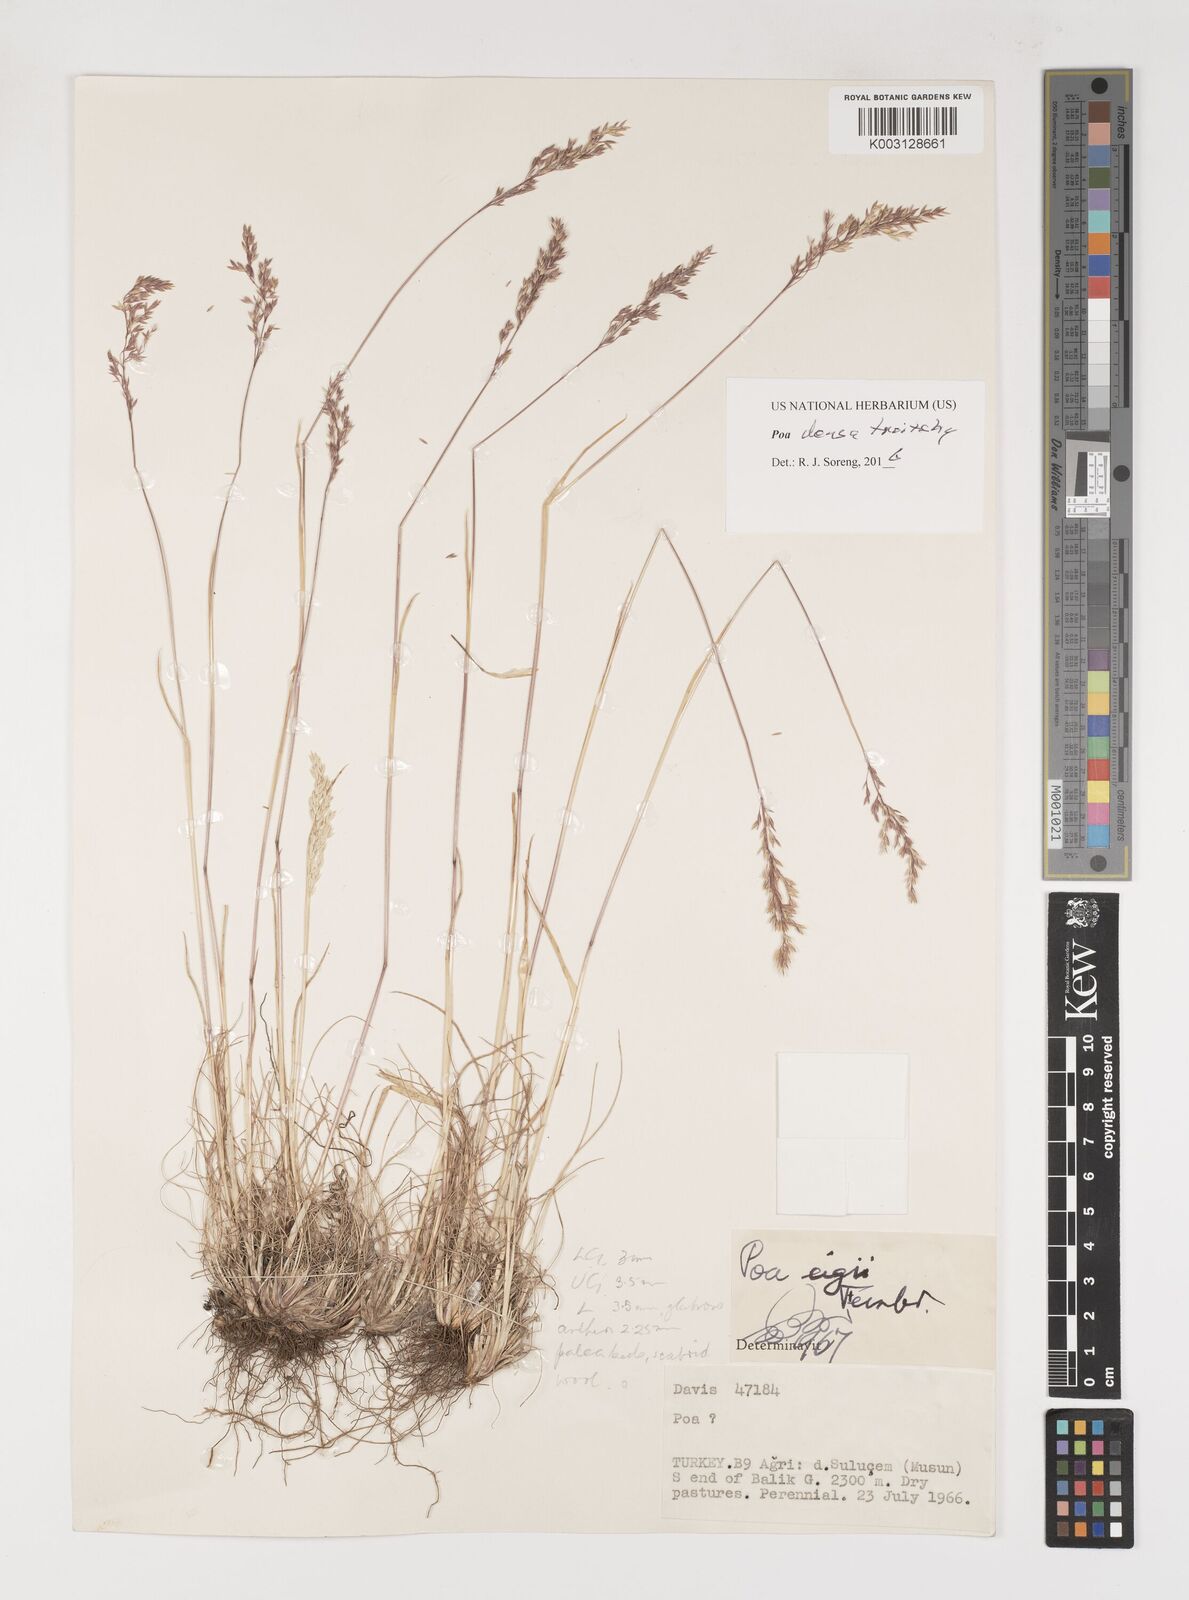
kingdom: Plantae
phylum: Tracheophyta
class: Liliopsida
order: Poales
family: Poaceae
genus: Poa
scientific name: Poa densa
